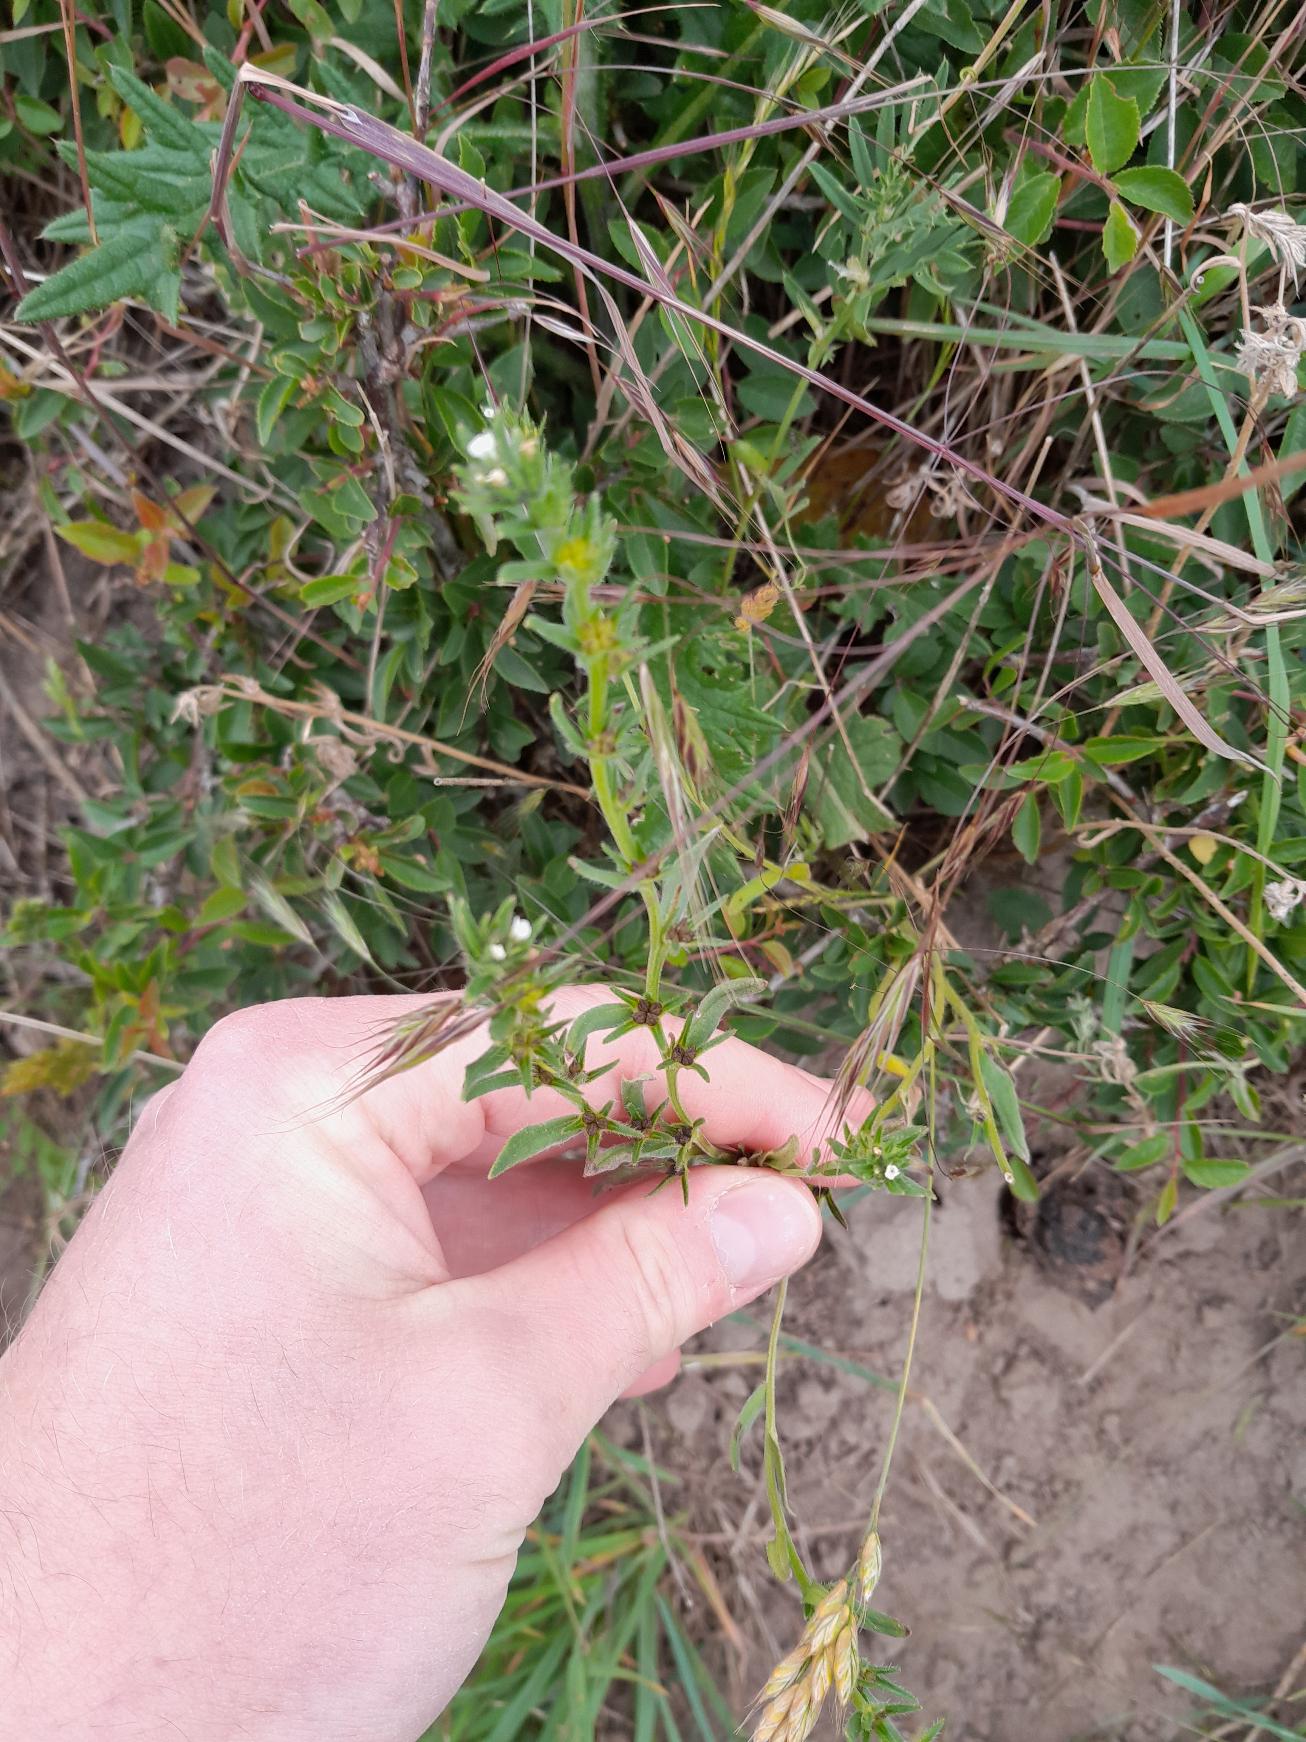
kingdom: Plantae
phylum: Tracheophyta
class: Magnoliopsida
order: Boraginales
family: Boraginaceae
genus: Buglossoides
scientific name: Buglossoides arvensis
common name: Rynket stenfrø
